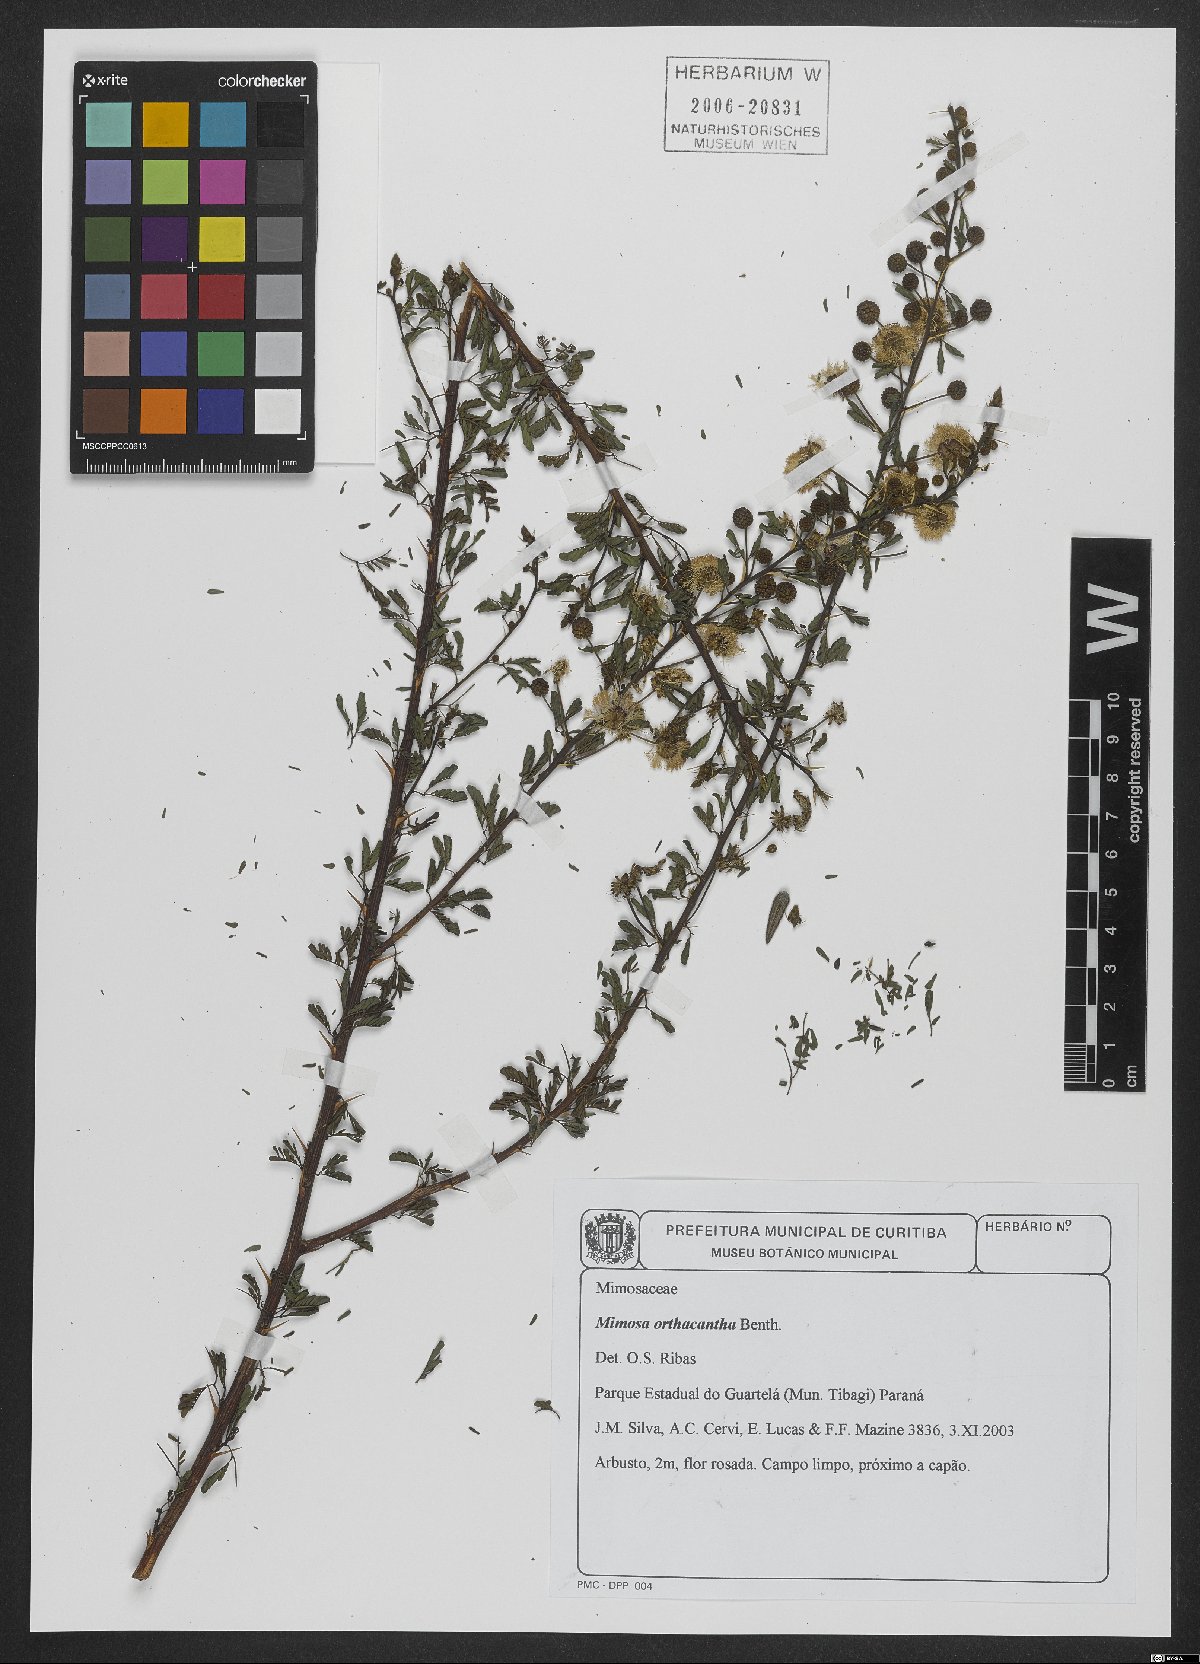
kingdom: Plantae
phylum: Tracheophyta
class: Magnoliopsida
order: Fabales
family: Fabaceae
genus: Mimosa
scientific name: Mimosa orthacantha
